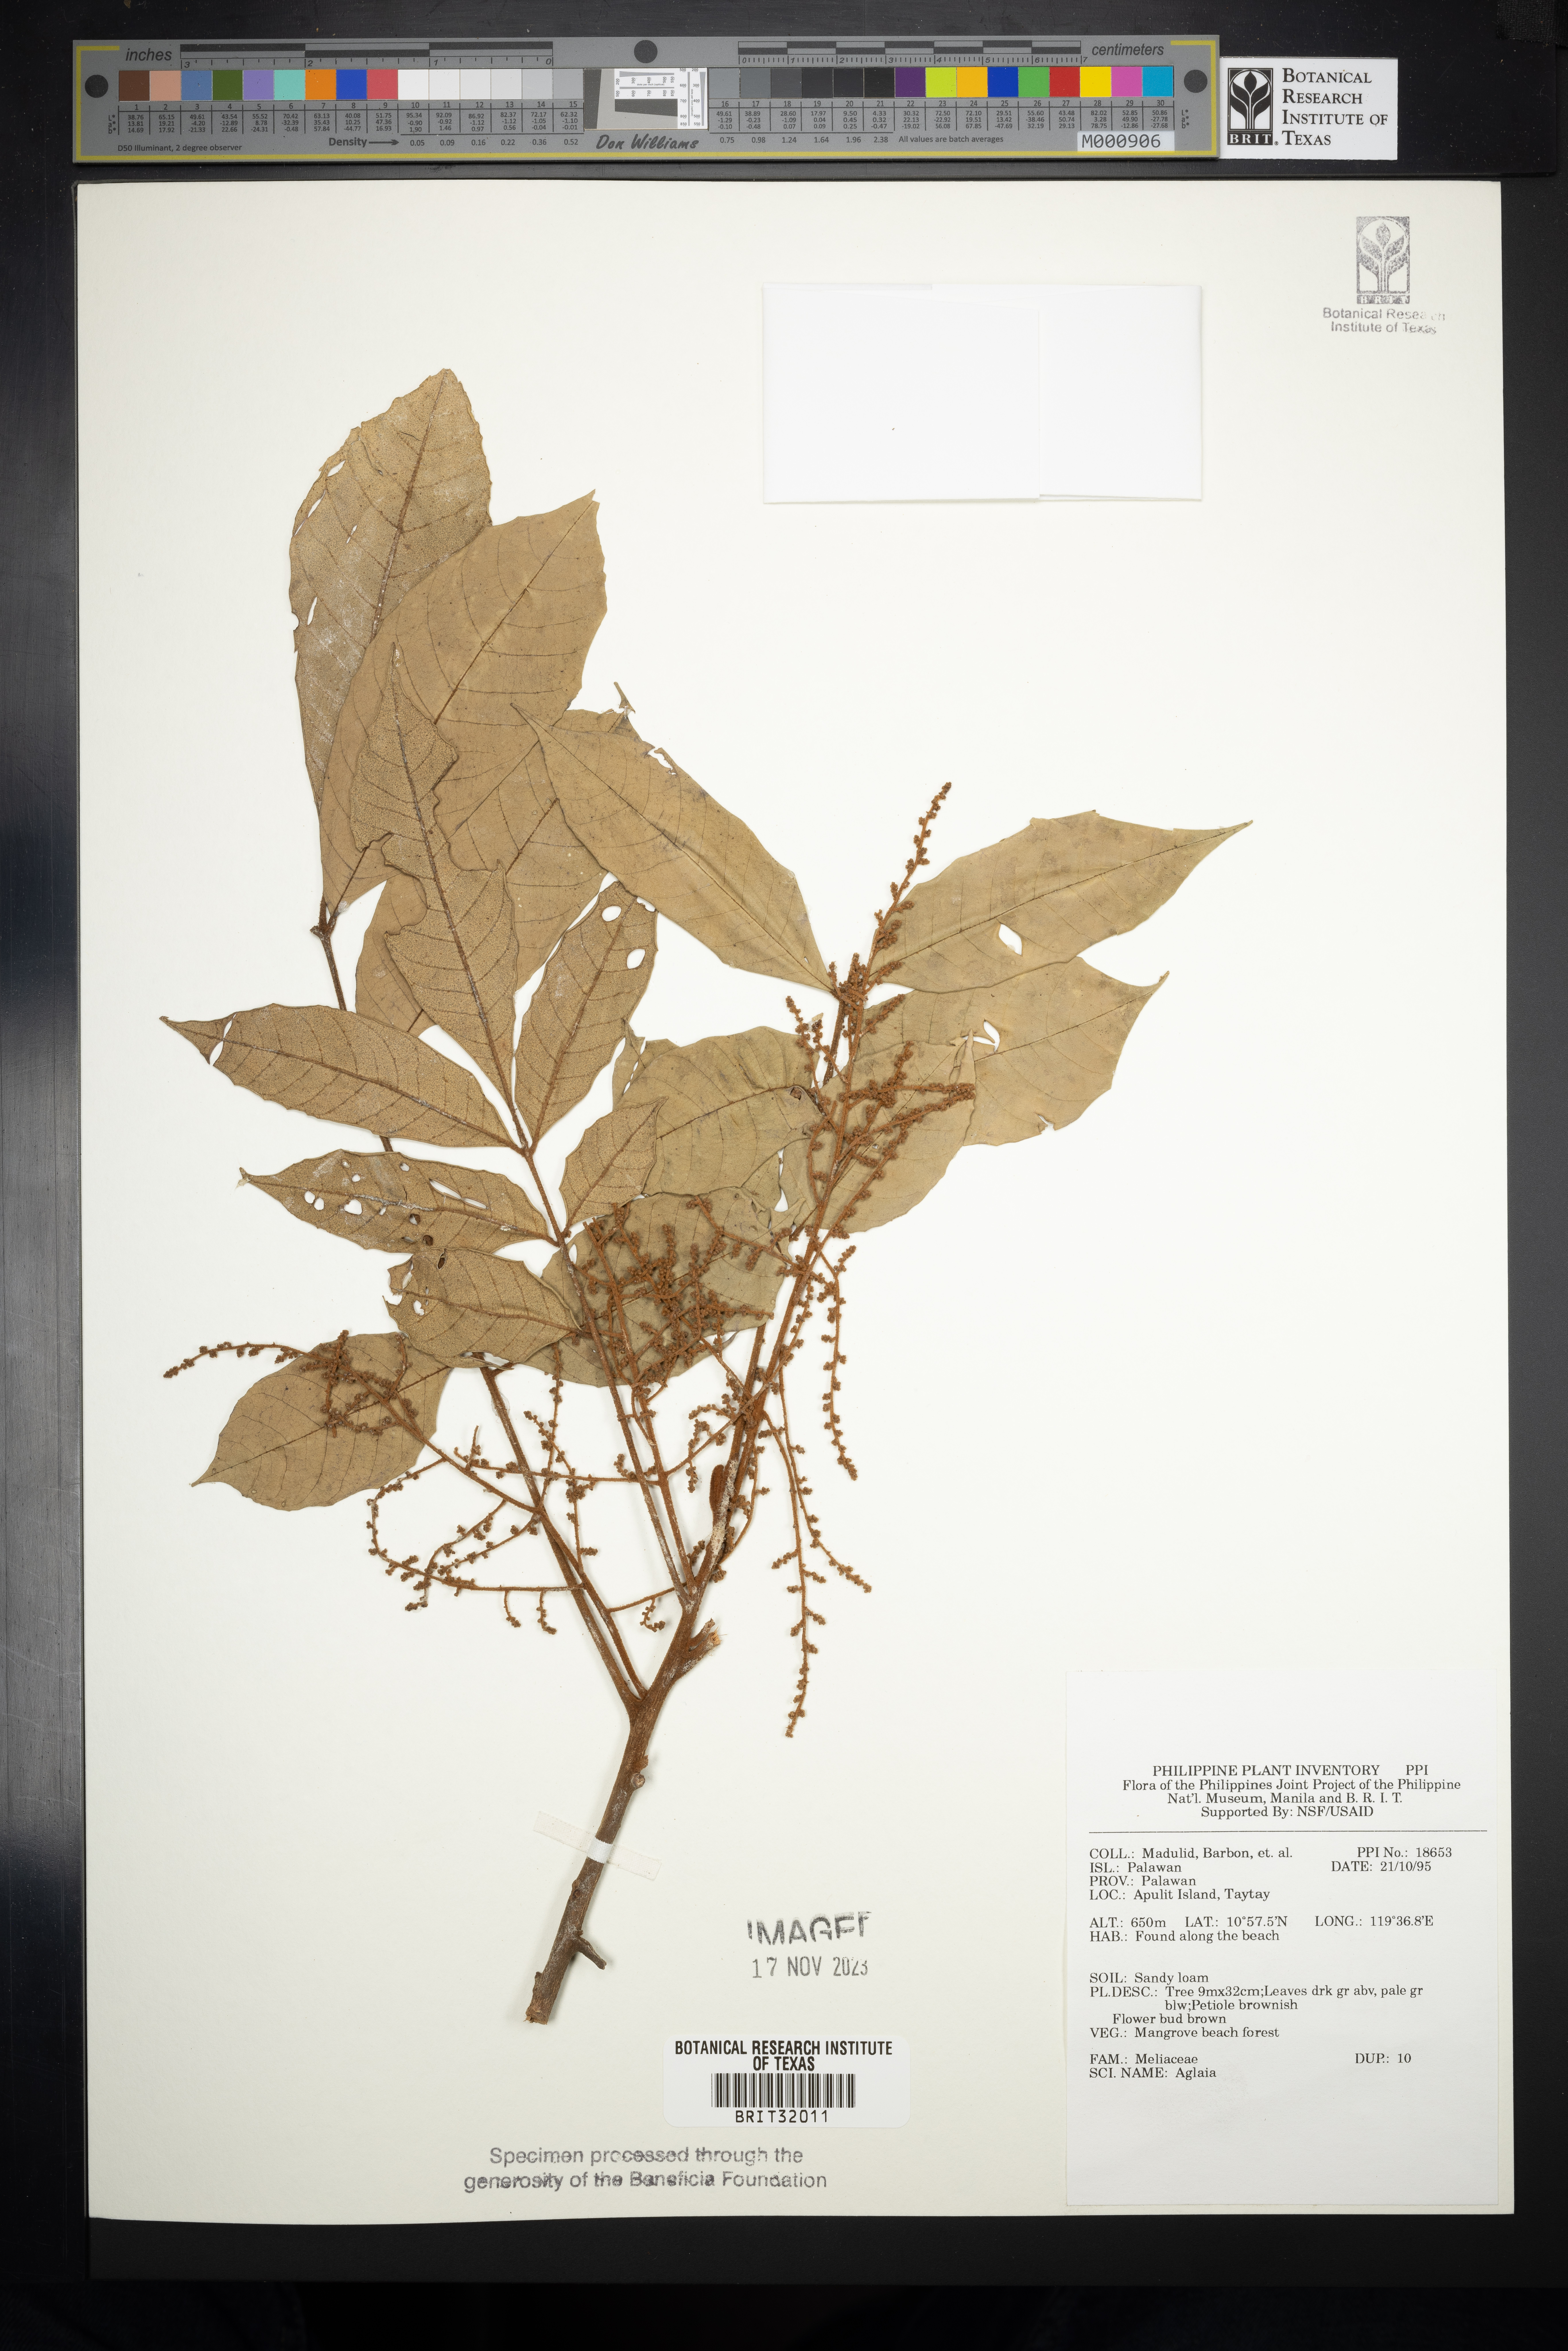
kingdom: Plantae
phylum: Tracheophyta
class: Magnoliopsida
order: Sapindales
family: Meliaceae
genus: Aglaia
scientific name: Aglaia
